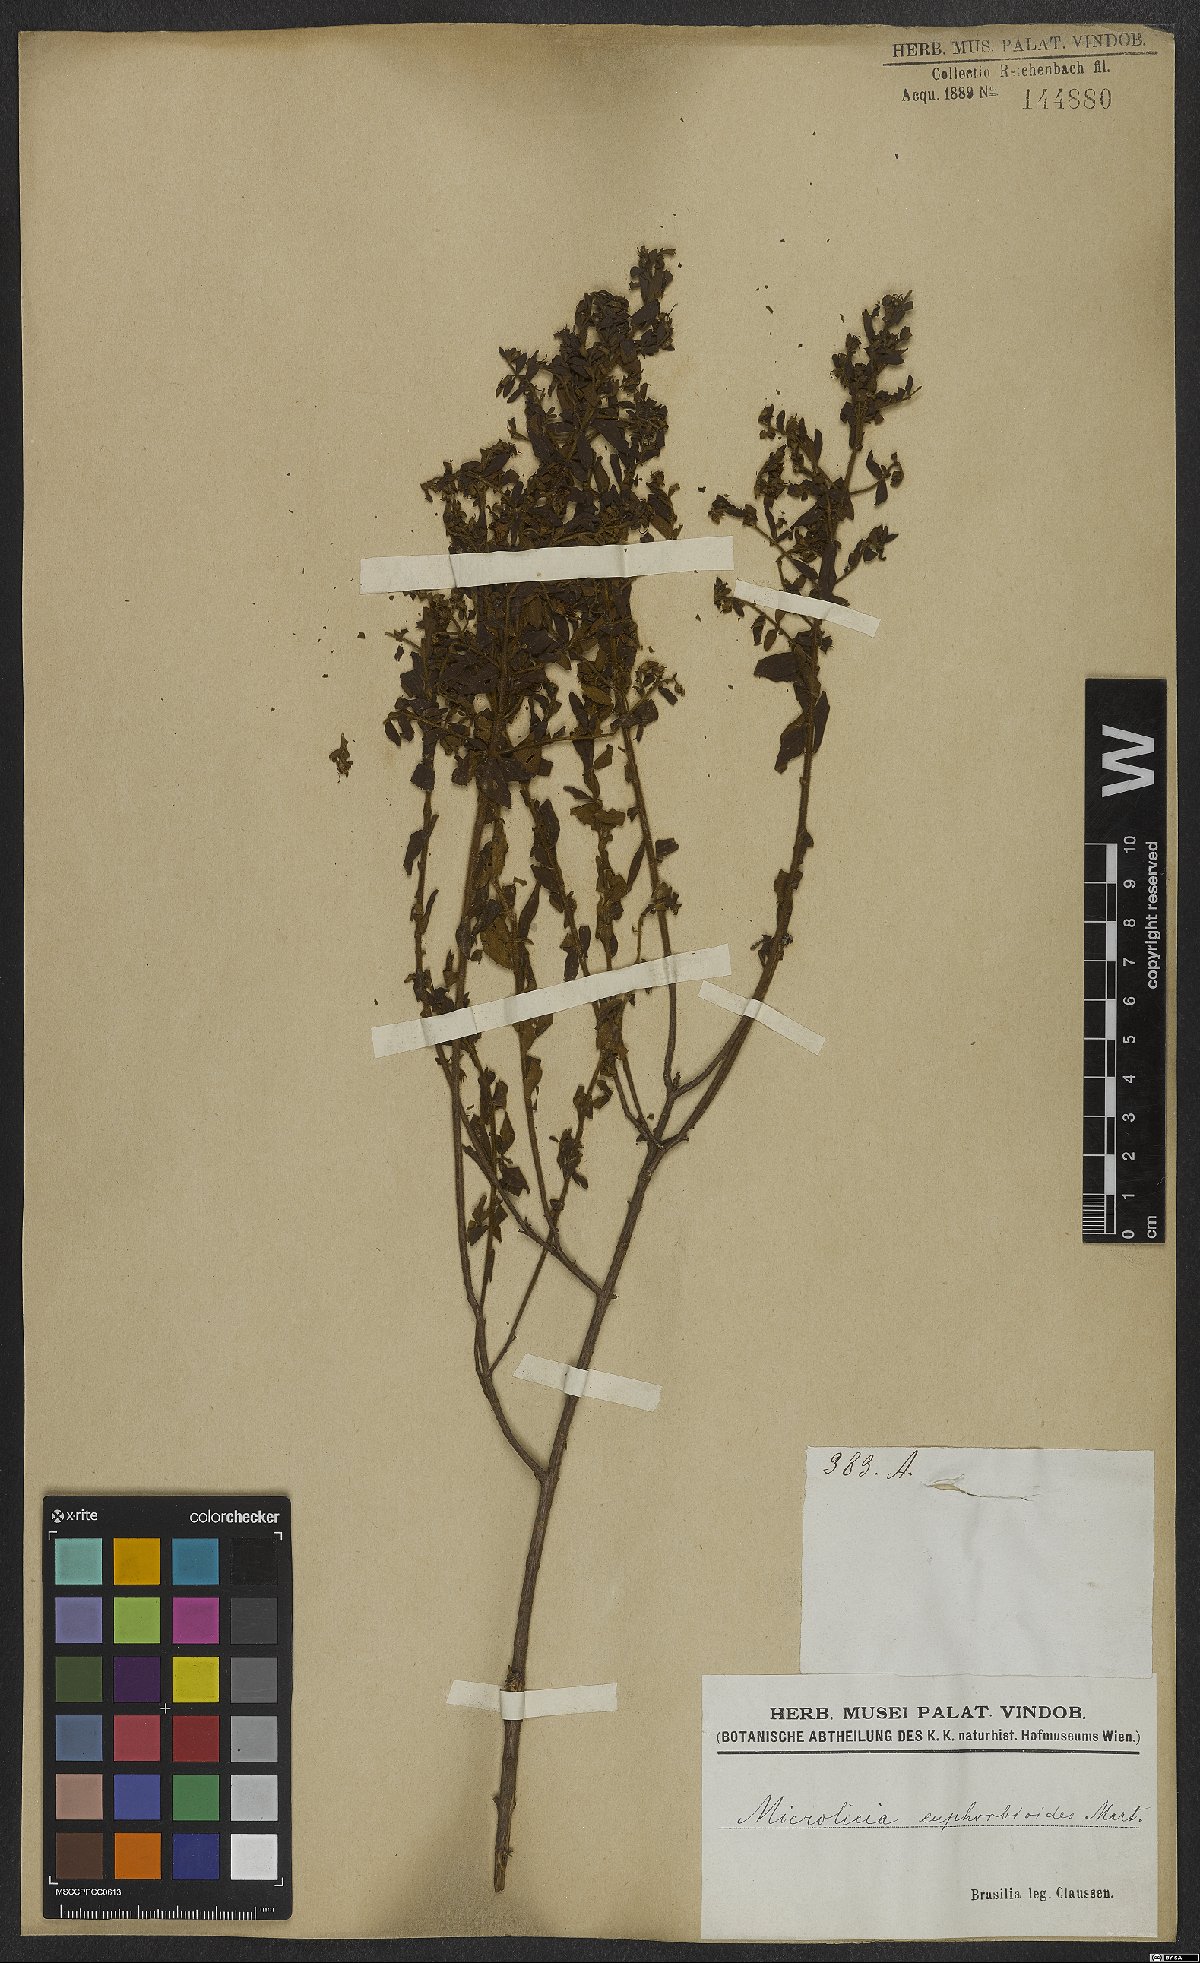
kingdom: Plantae
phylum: Tracheophyta
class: Magnoliopsida
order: Myrtales
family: Melastomataceae
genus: Microlicia
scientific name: Microlicia euphorbioides
